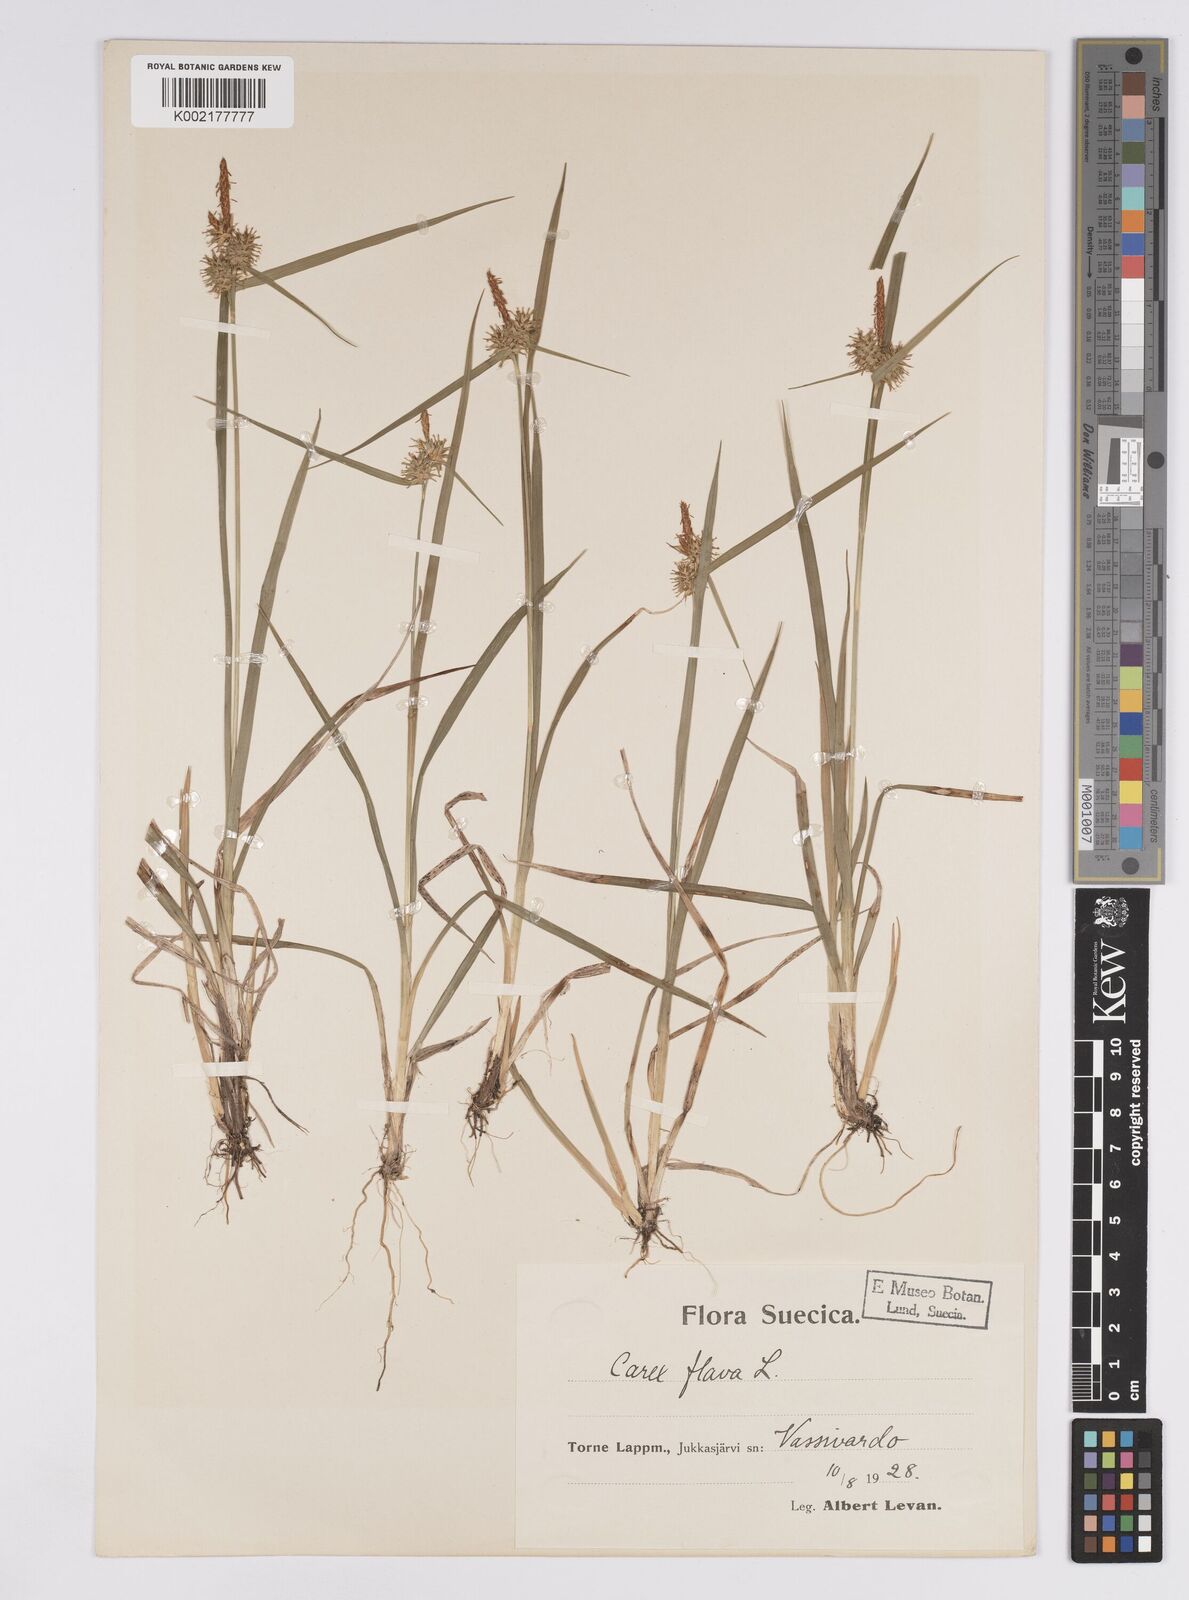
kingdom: Plantae
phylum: Tracheophyta
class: Liliopsida
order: Poales
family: Cyperaceae
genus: Carex
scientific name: Carex flava
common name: Large yellow-sedge
